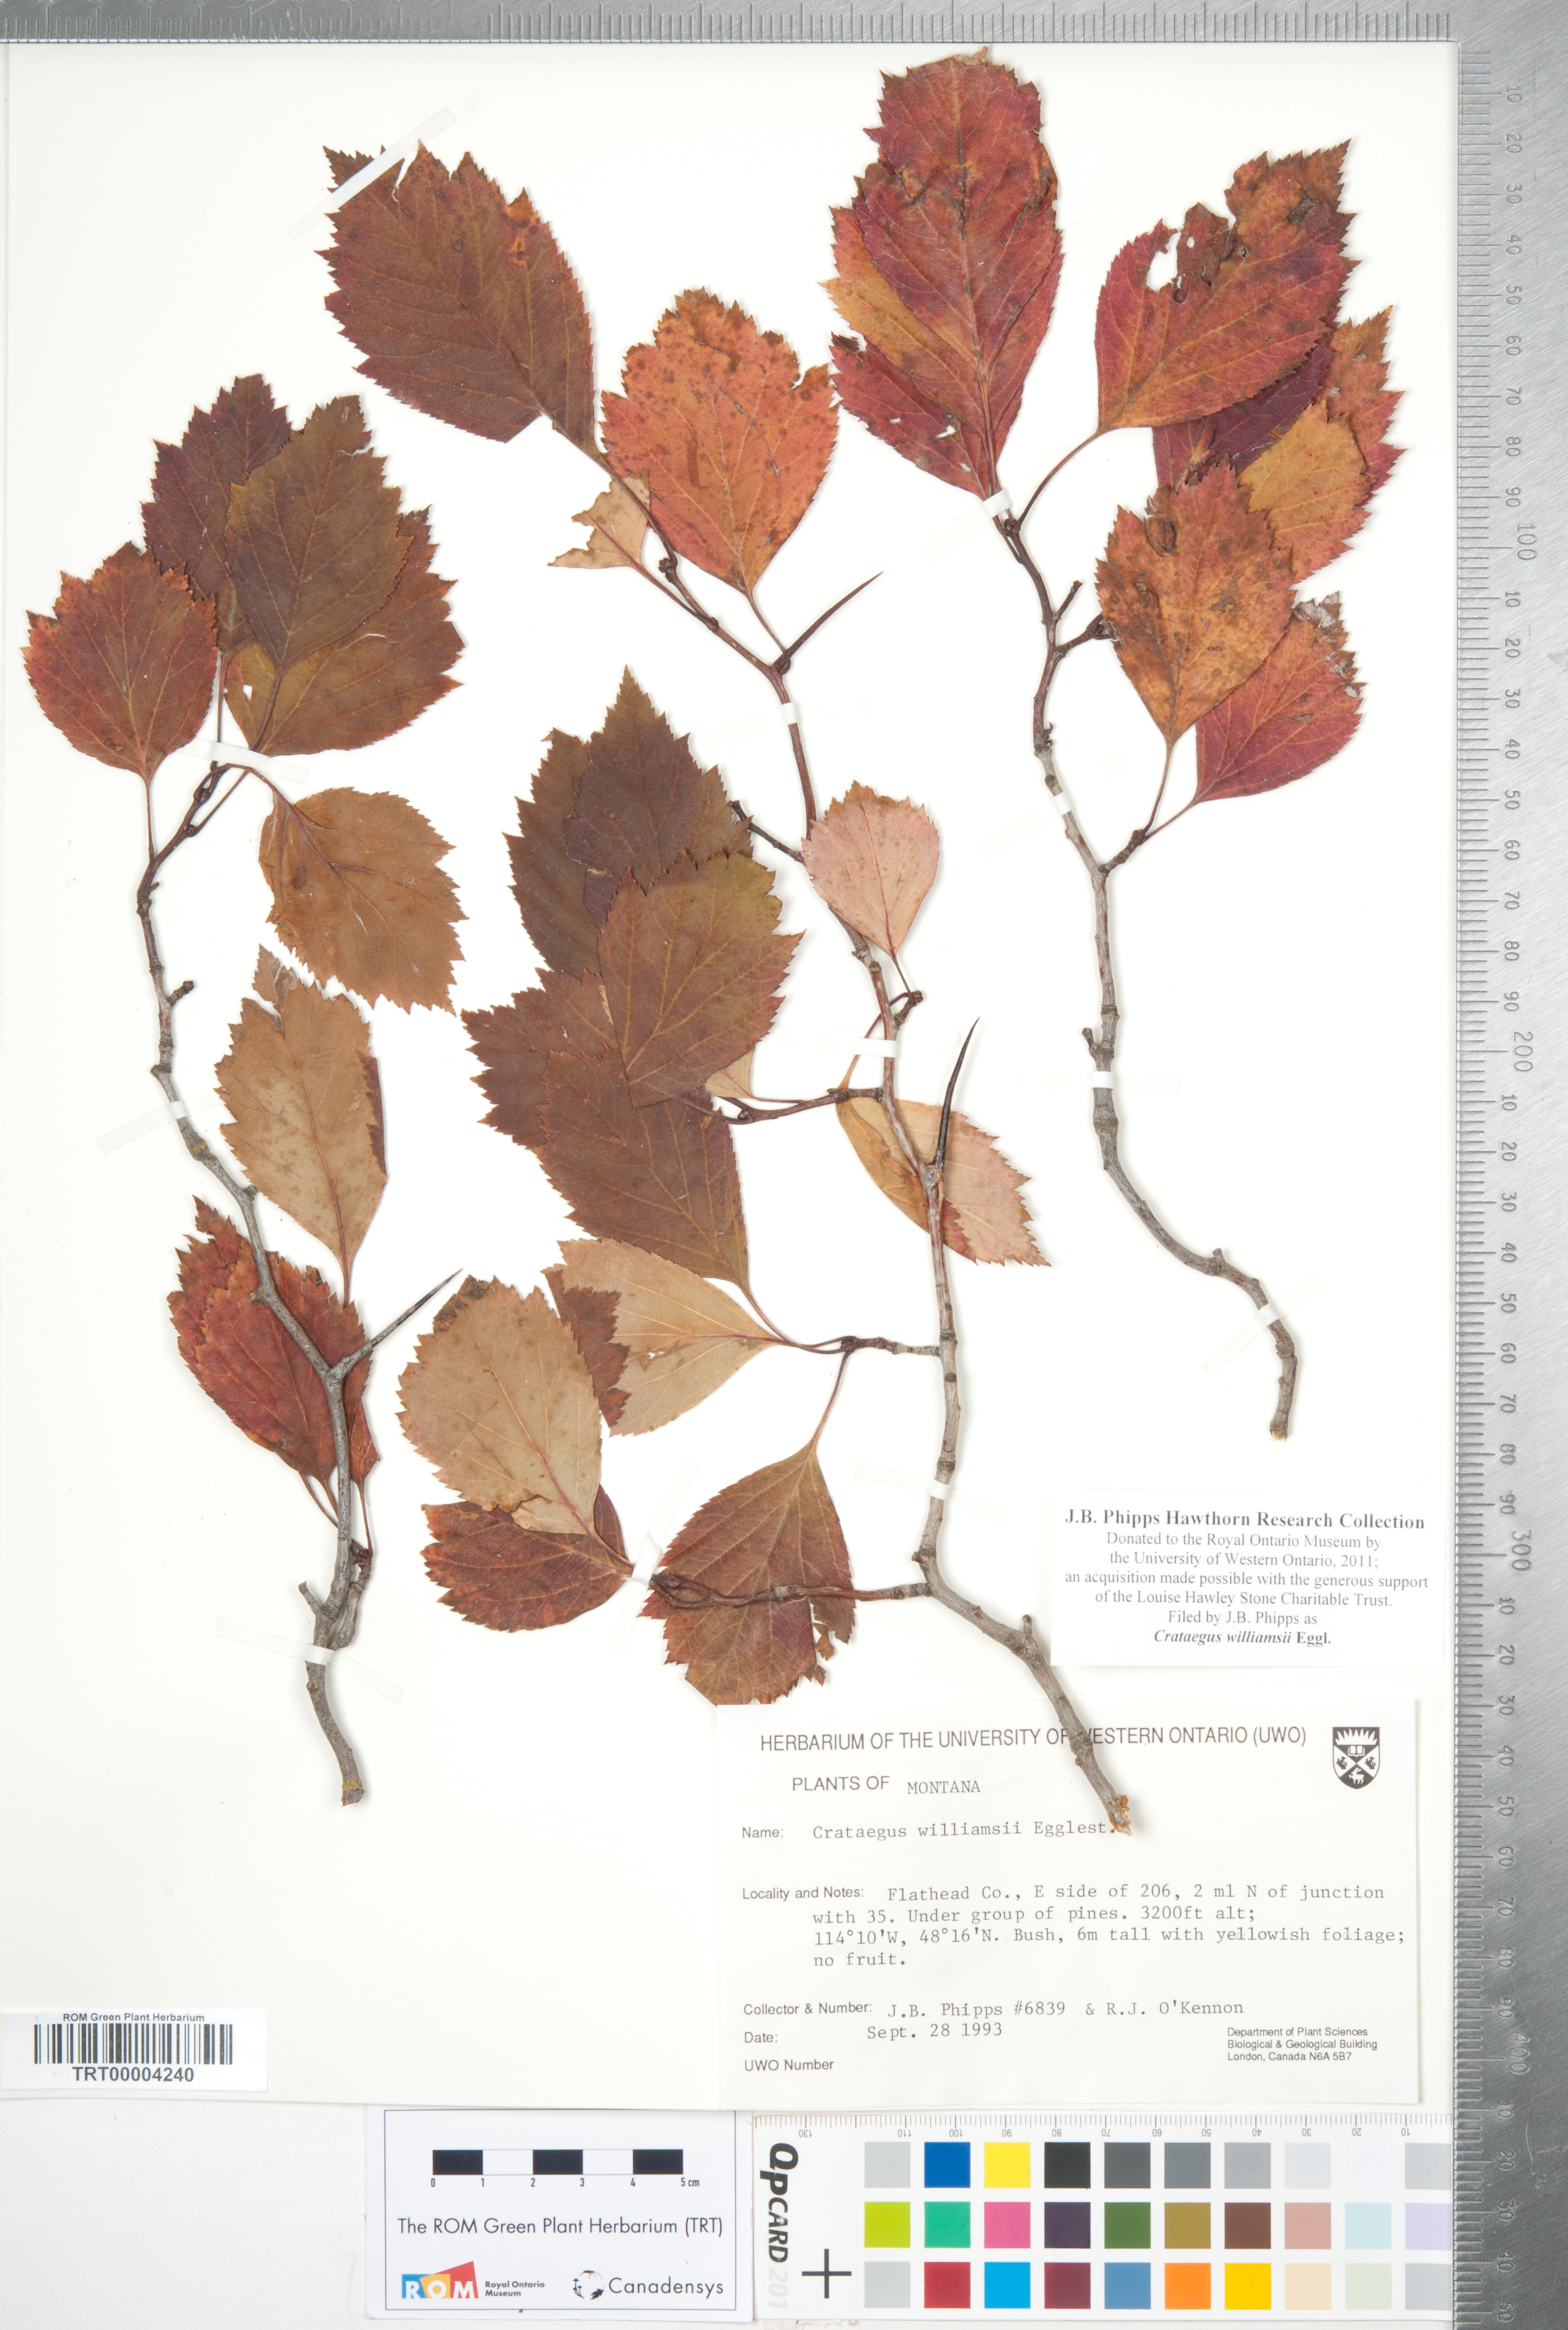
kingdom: Plantae
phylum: Tracheophyta
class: Magnoliopsida
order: Rosales
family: Rosaceae
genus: Crataegus
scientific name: Crataegus williamsii
